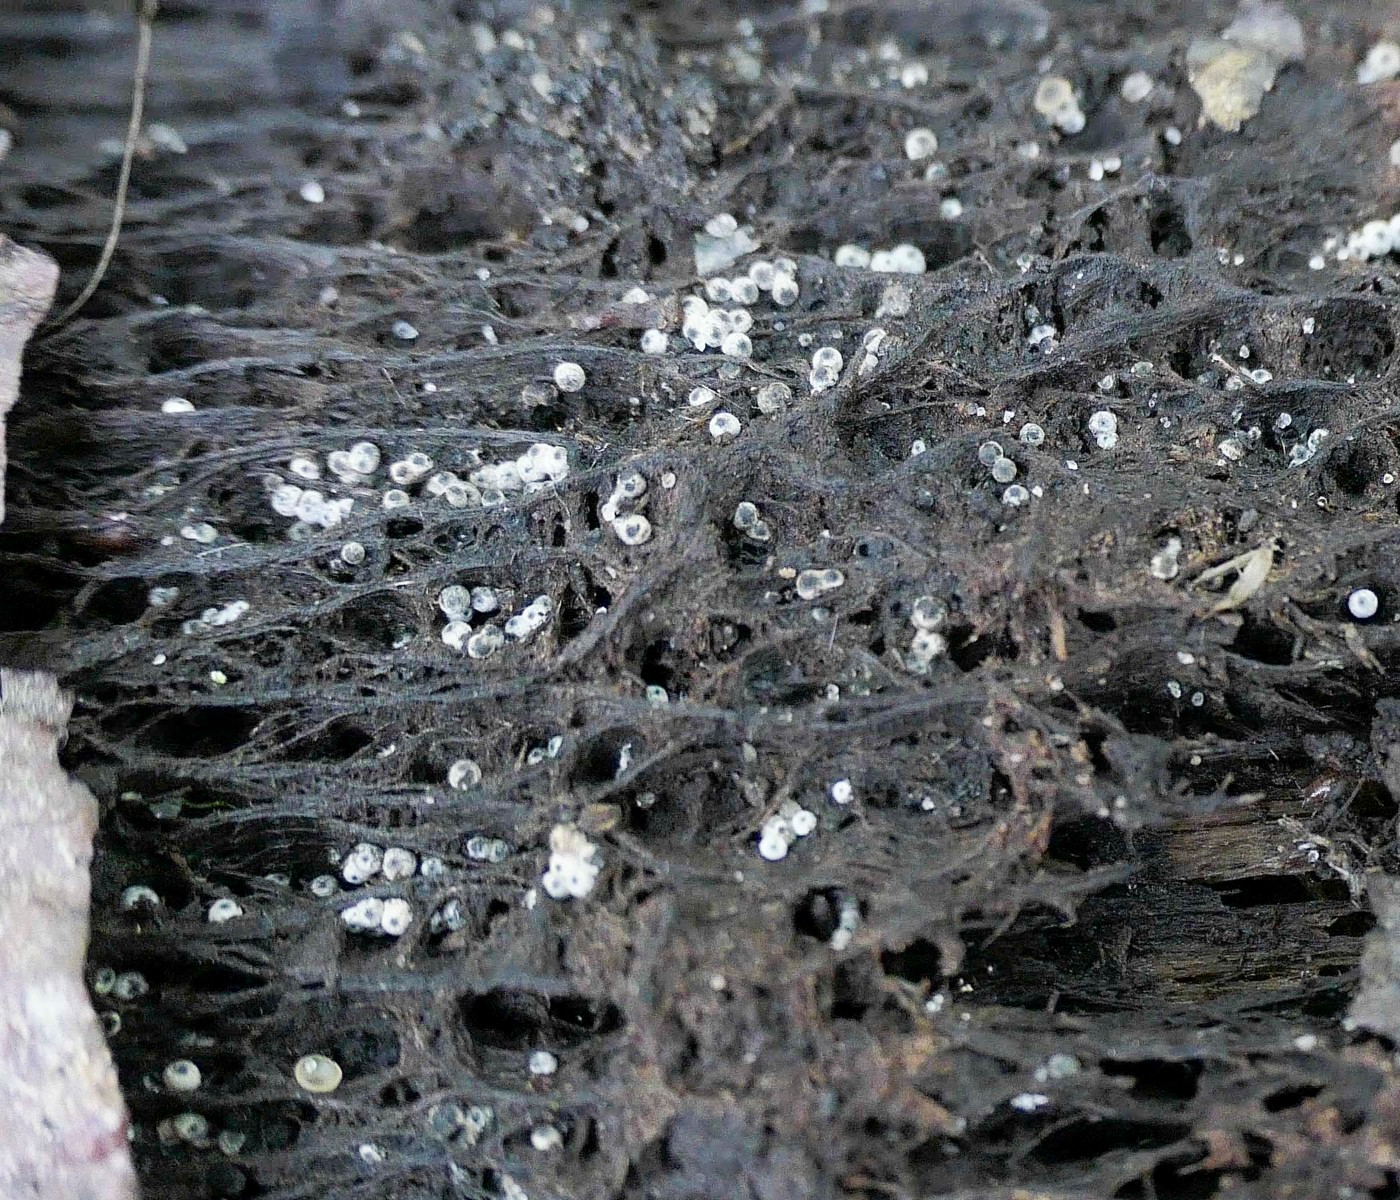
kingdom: Fungi
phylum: Ascomycota
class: Sordariomycetes
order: Sordariales
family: Lasiosphaeriaceae
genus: Lasiosphaeria
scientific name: Lasiosphaeria ovina
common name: fåre-kernesvamp
